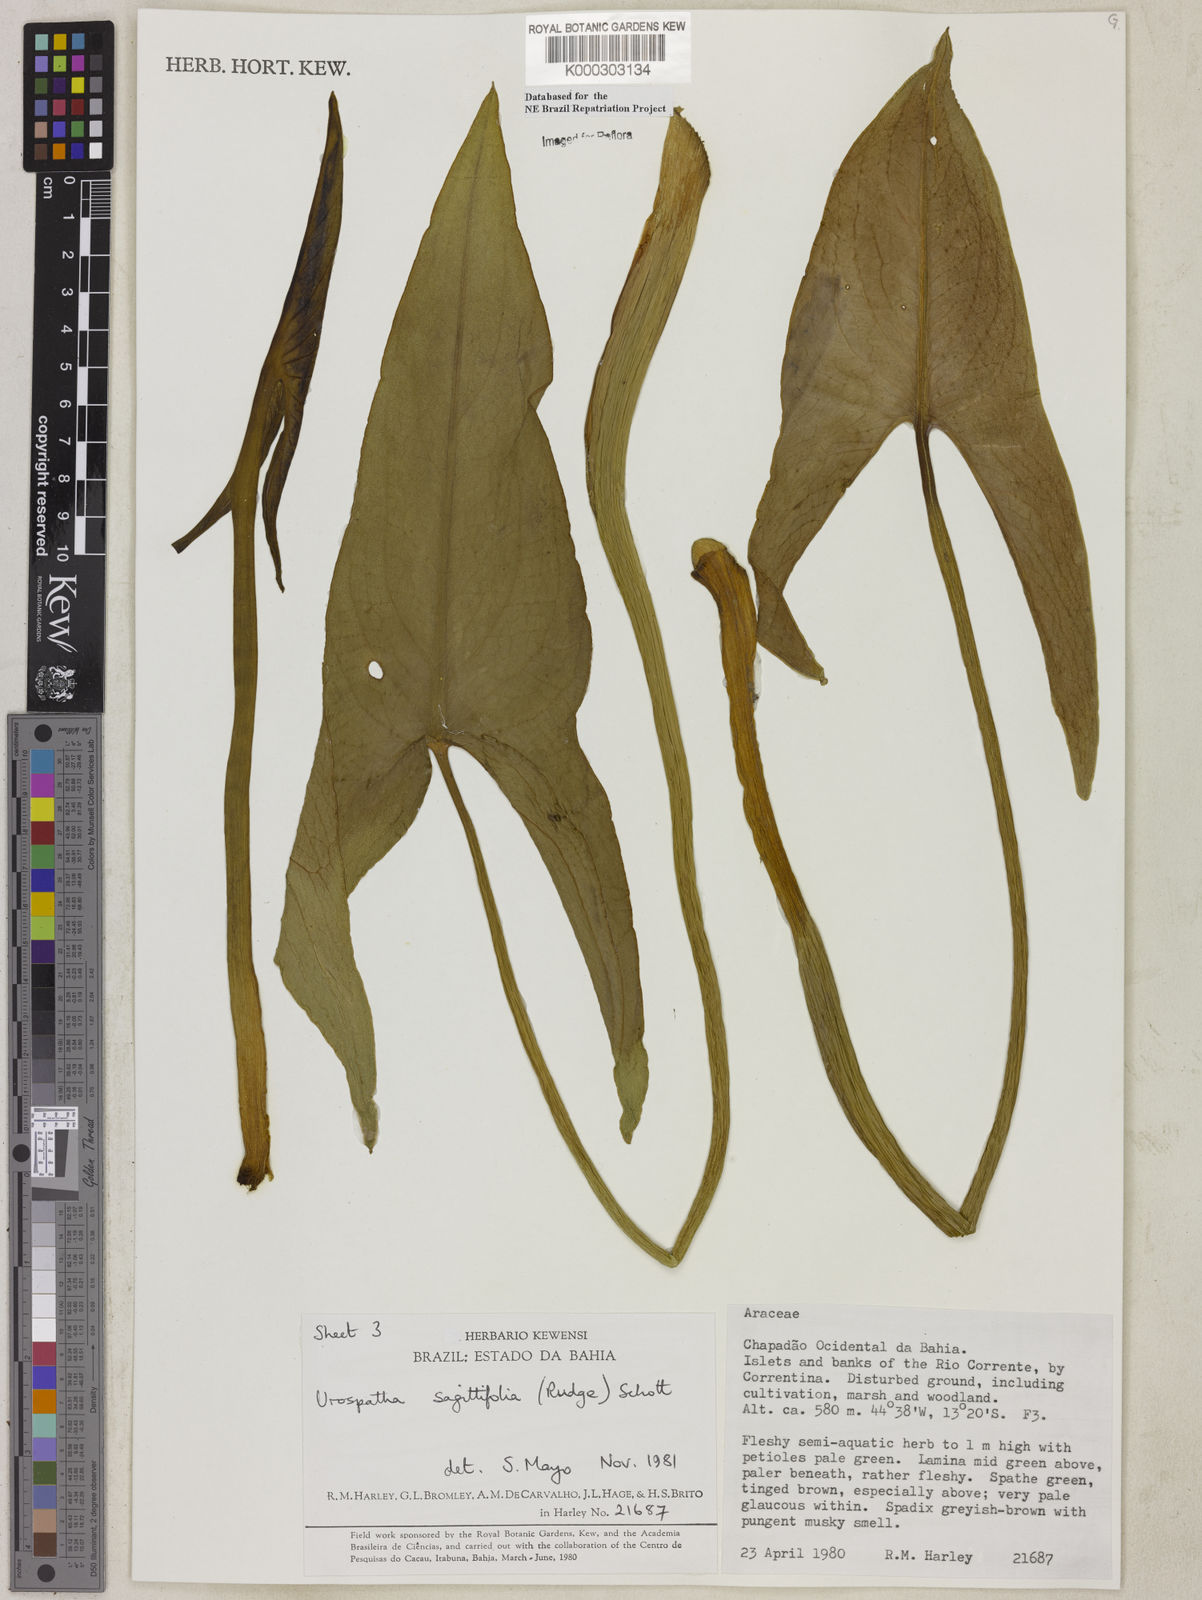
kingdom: Plantae
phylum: Tracheophyta
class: Liliopsida
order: Alismatales
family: Araceae
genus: Urospatha
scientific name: Urospatha sagittifolia
